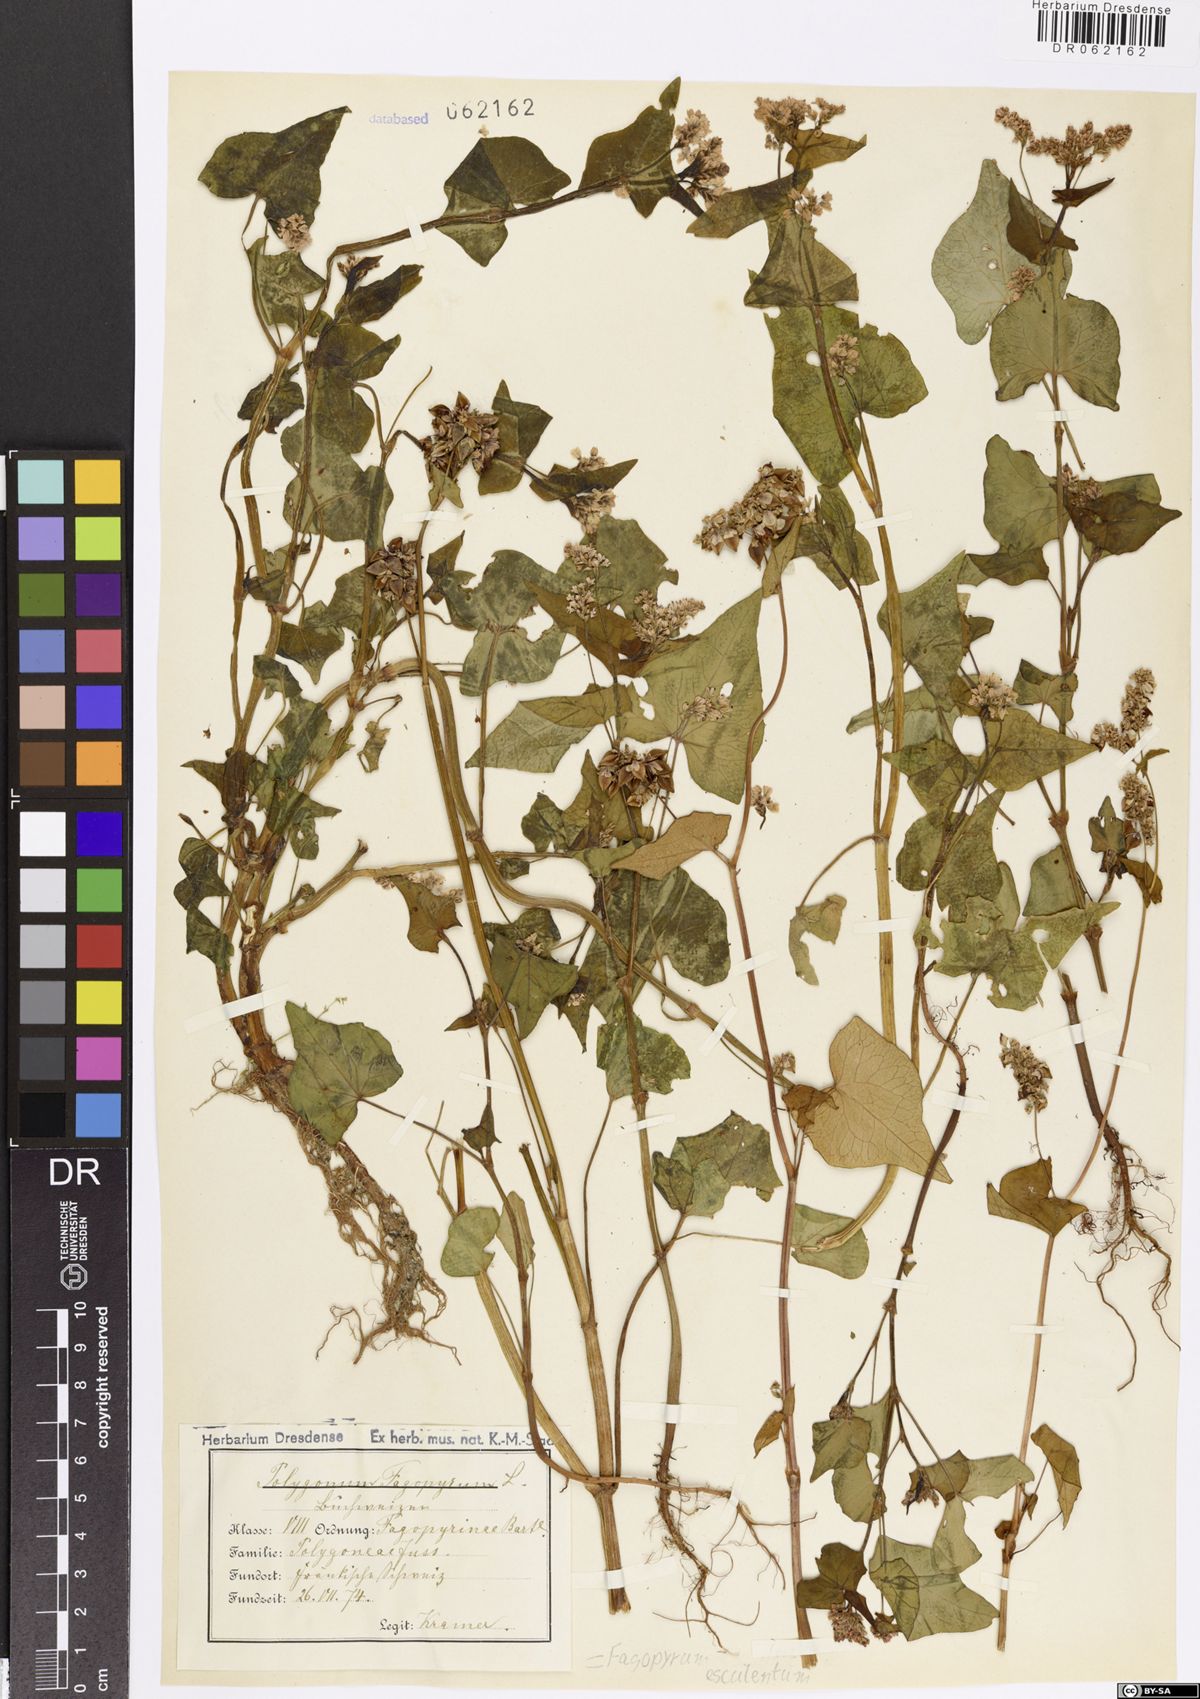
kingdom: Plantae
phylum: Tracheophyta
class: Magnoliopsida
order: Caryophyllales
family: Polygonaceae
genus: Fagopyrum
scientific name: Fagopyrum esculentum
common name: Buckwheat
